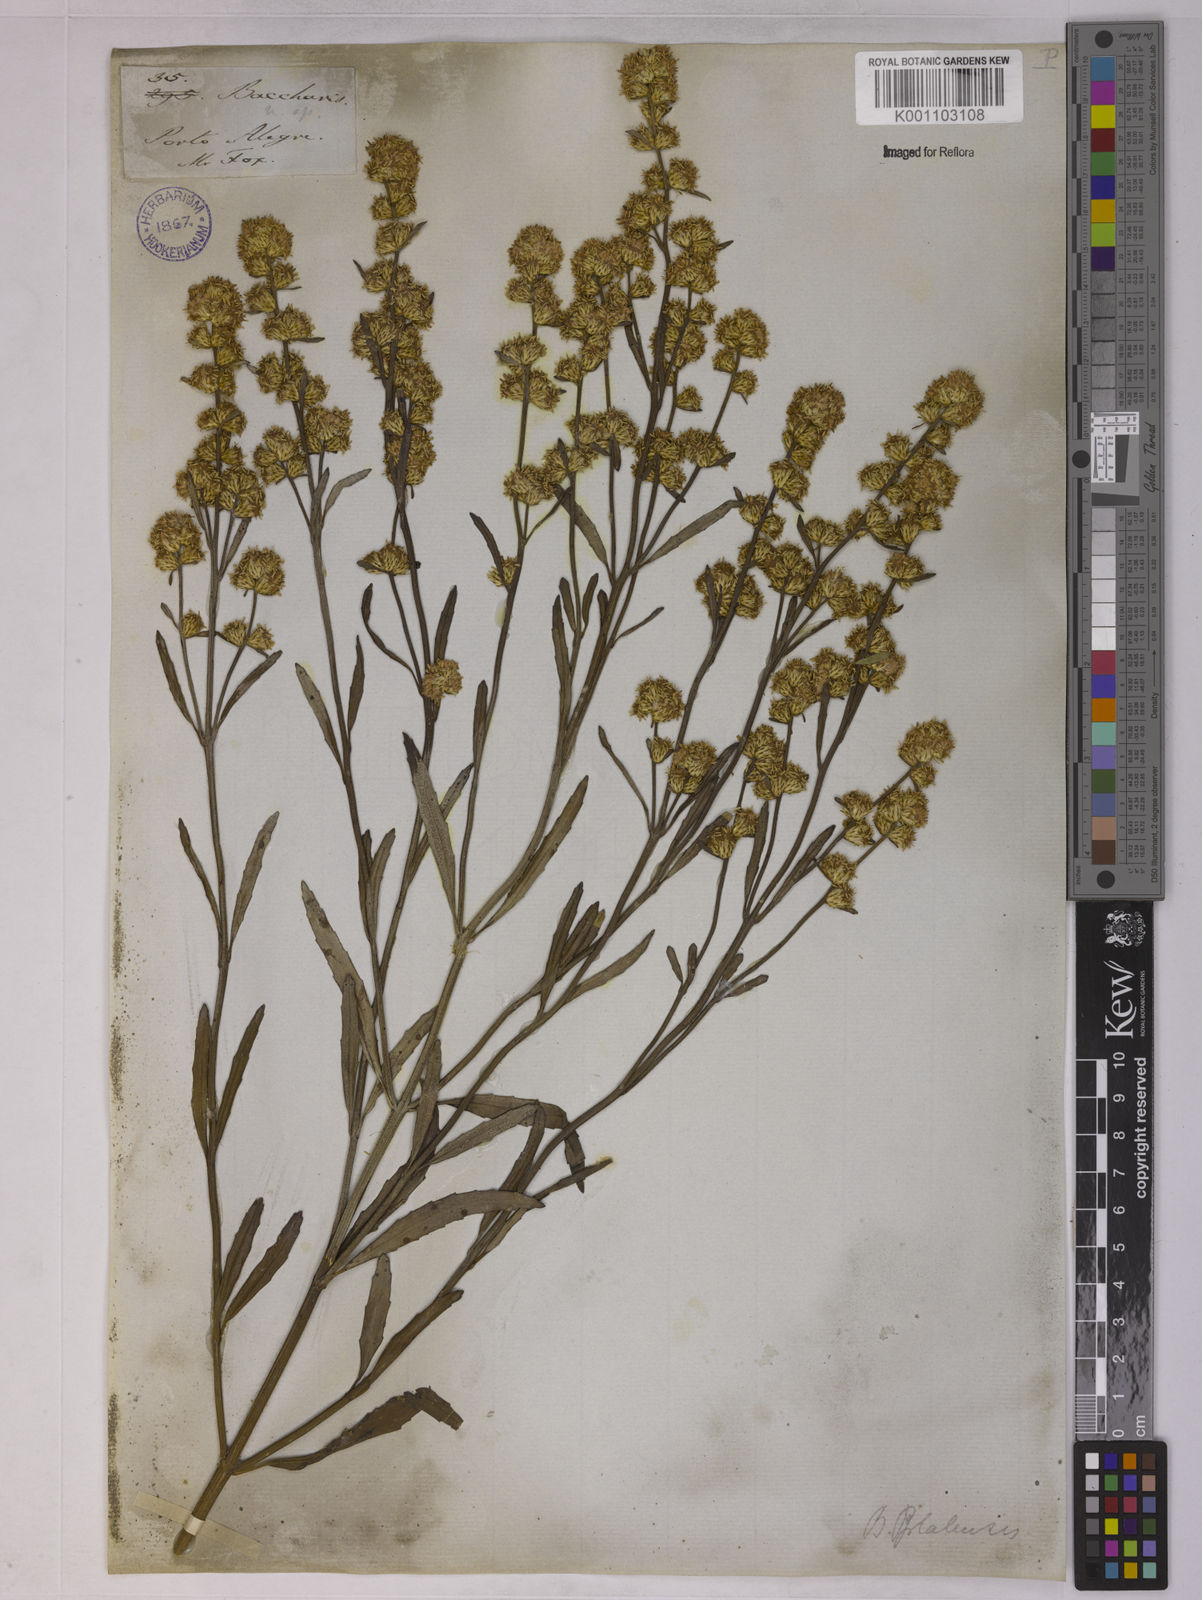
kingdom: Plantae
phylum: Tracheophyta
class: Magnoliopsida
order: Asterales
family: Asteraceae
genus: Baccharis
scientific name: Baccharis spicata
